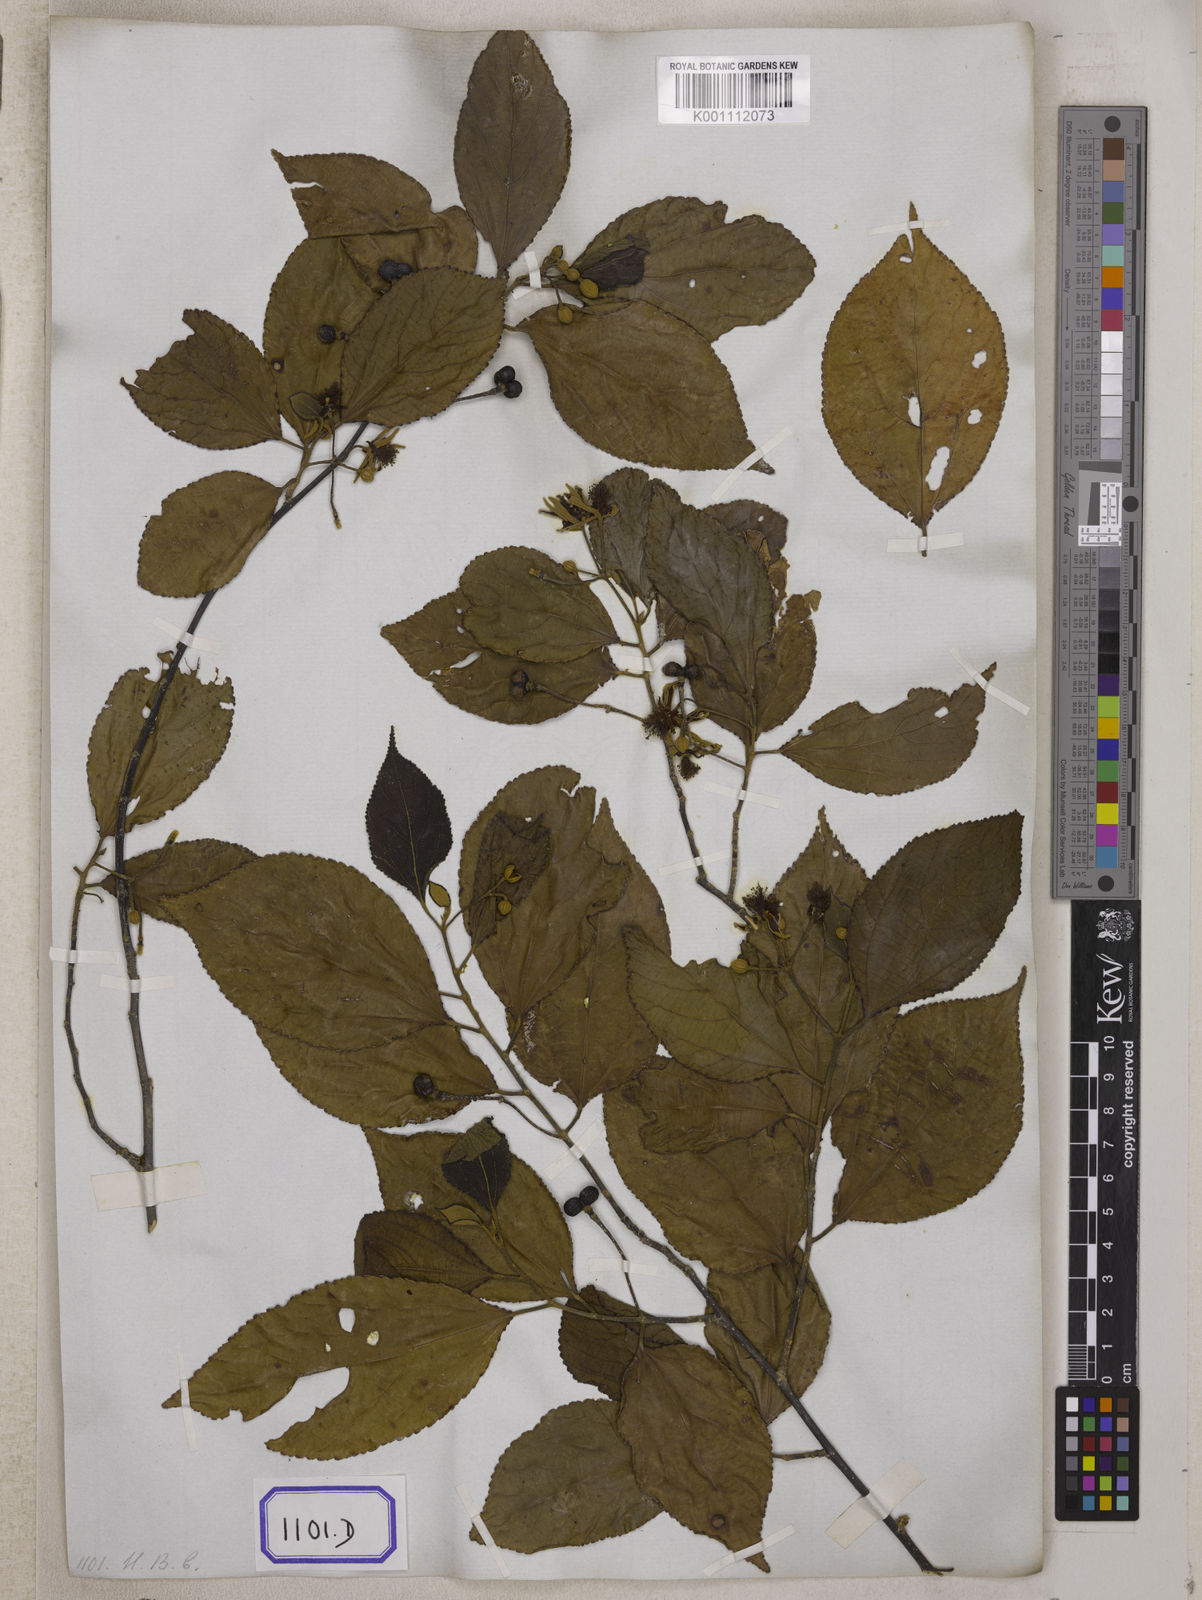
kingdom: Plantae
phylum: Tracheophyta
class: Magnoliopsida
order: Malvales
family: Malvaceae
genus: Grewia
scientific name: Grewia oppositifolia
